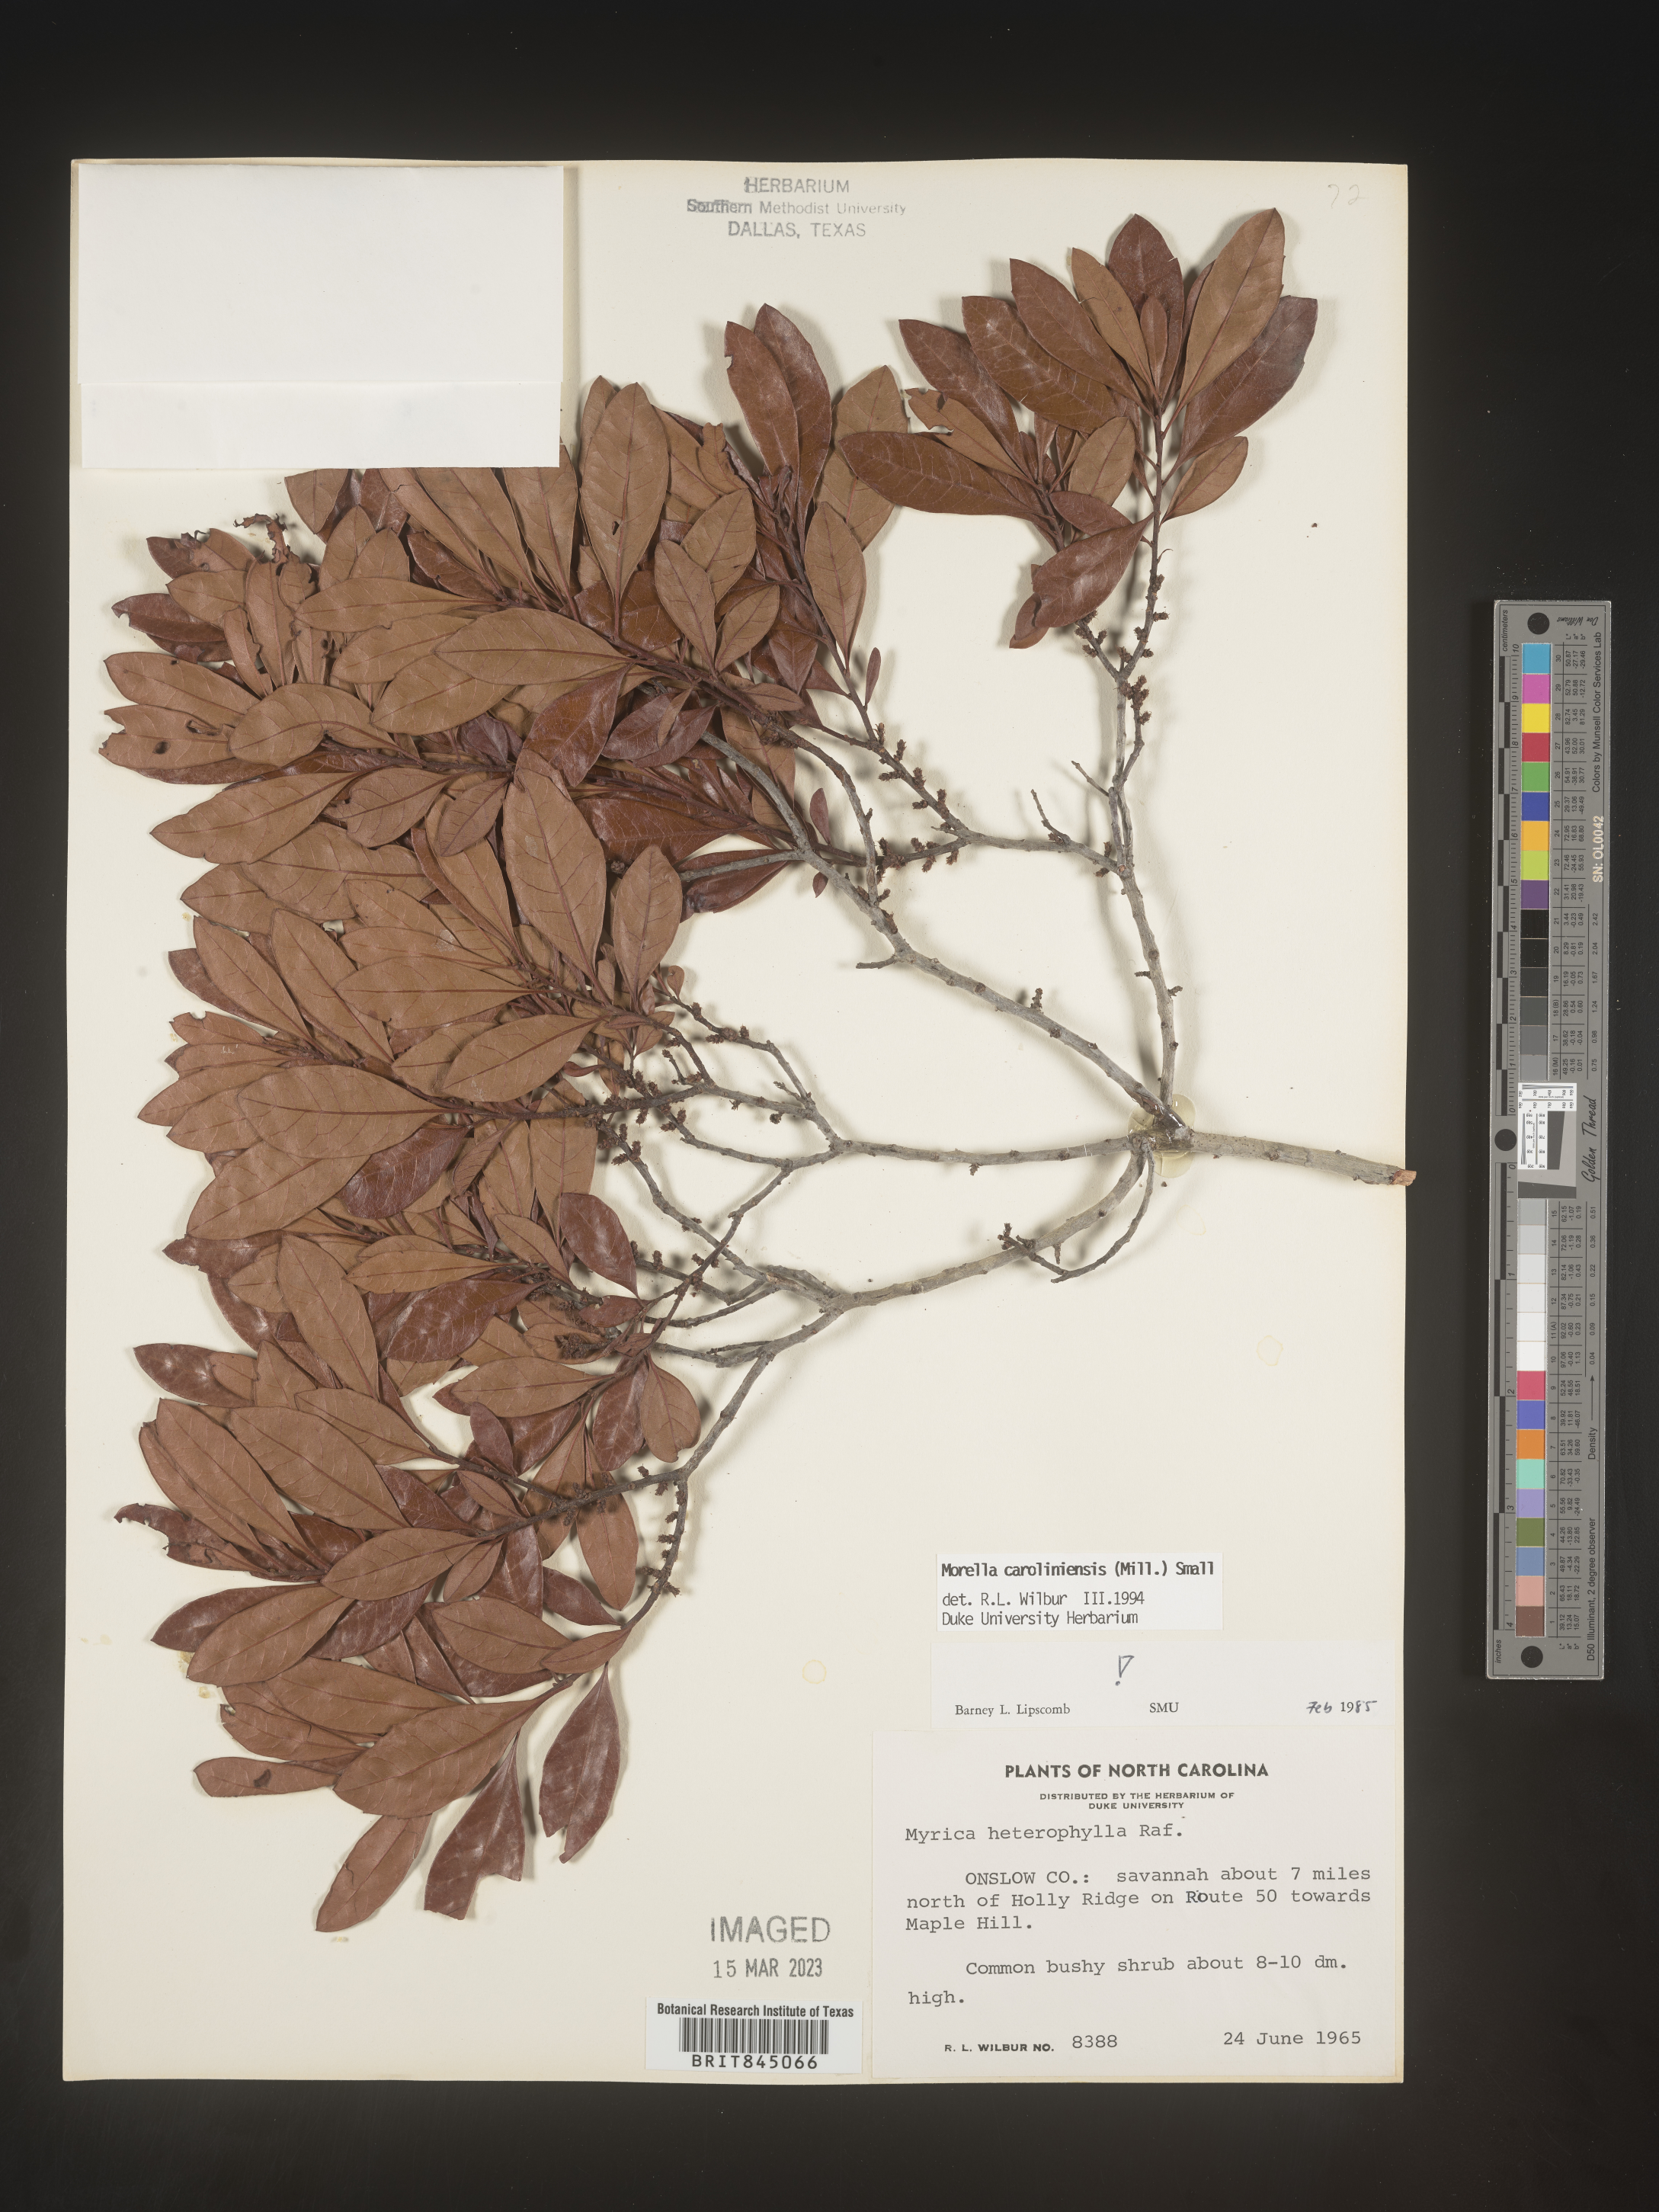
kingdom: Plantae
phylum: Tracheophyta
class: Magnoliopsida
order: Fagales
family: Myricaceae
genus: Morella
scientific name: Morella caroliniensis
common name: Evergreen bayberry
